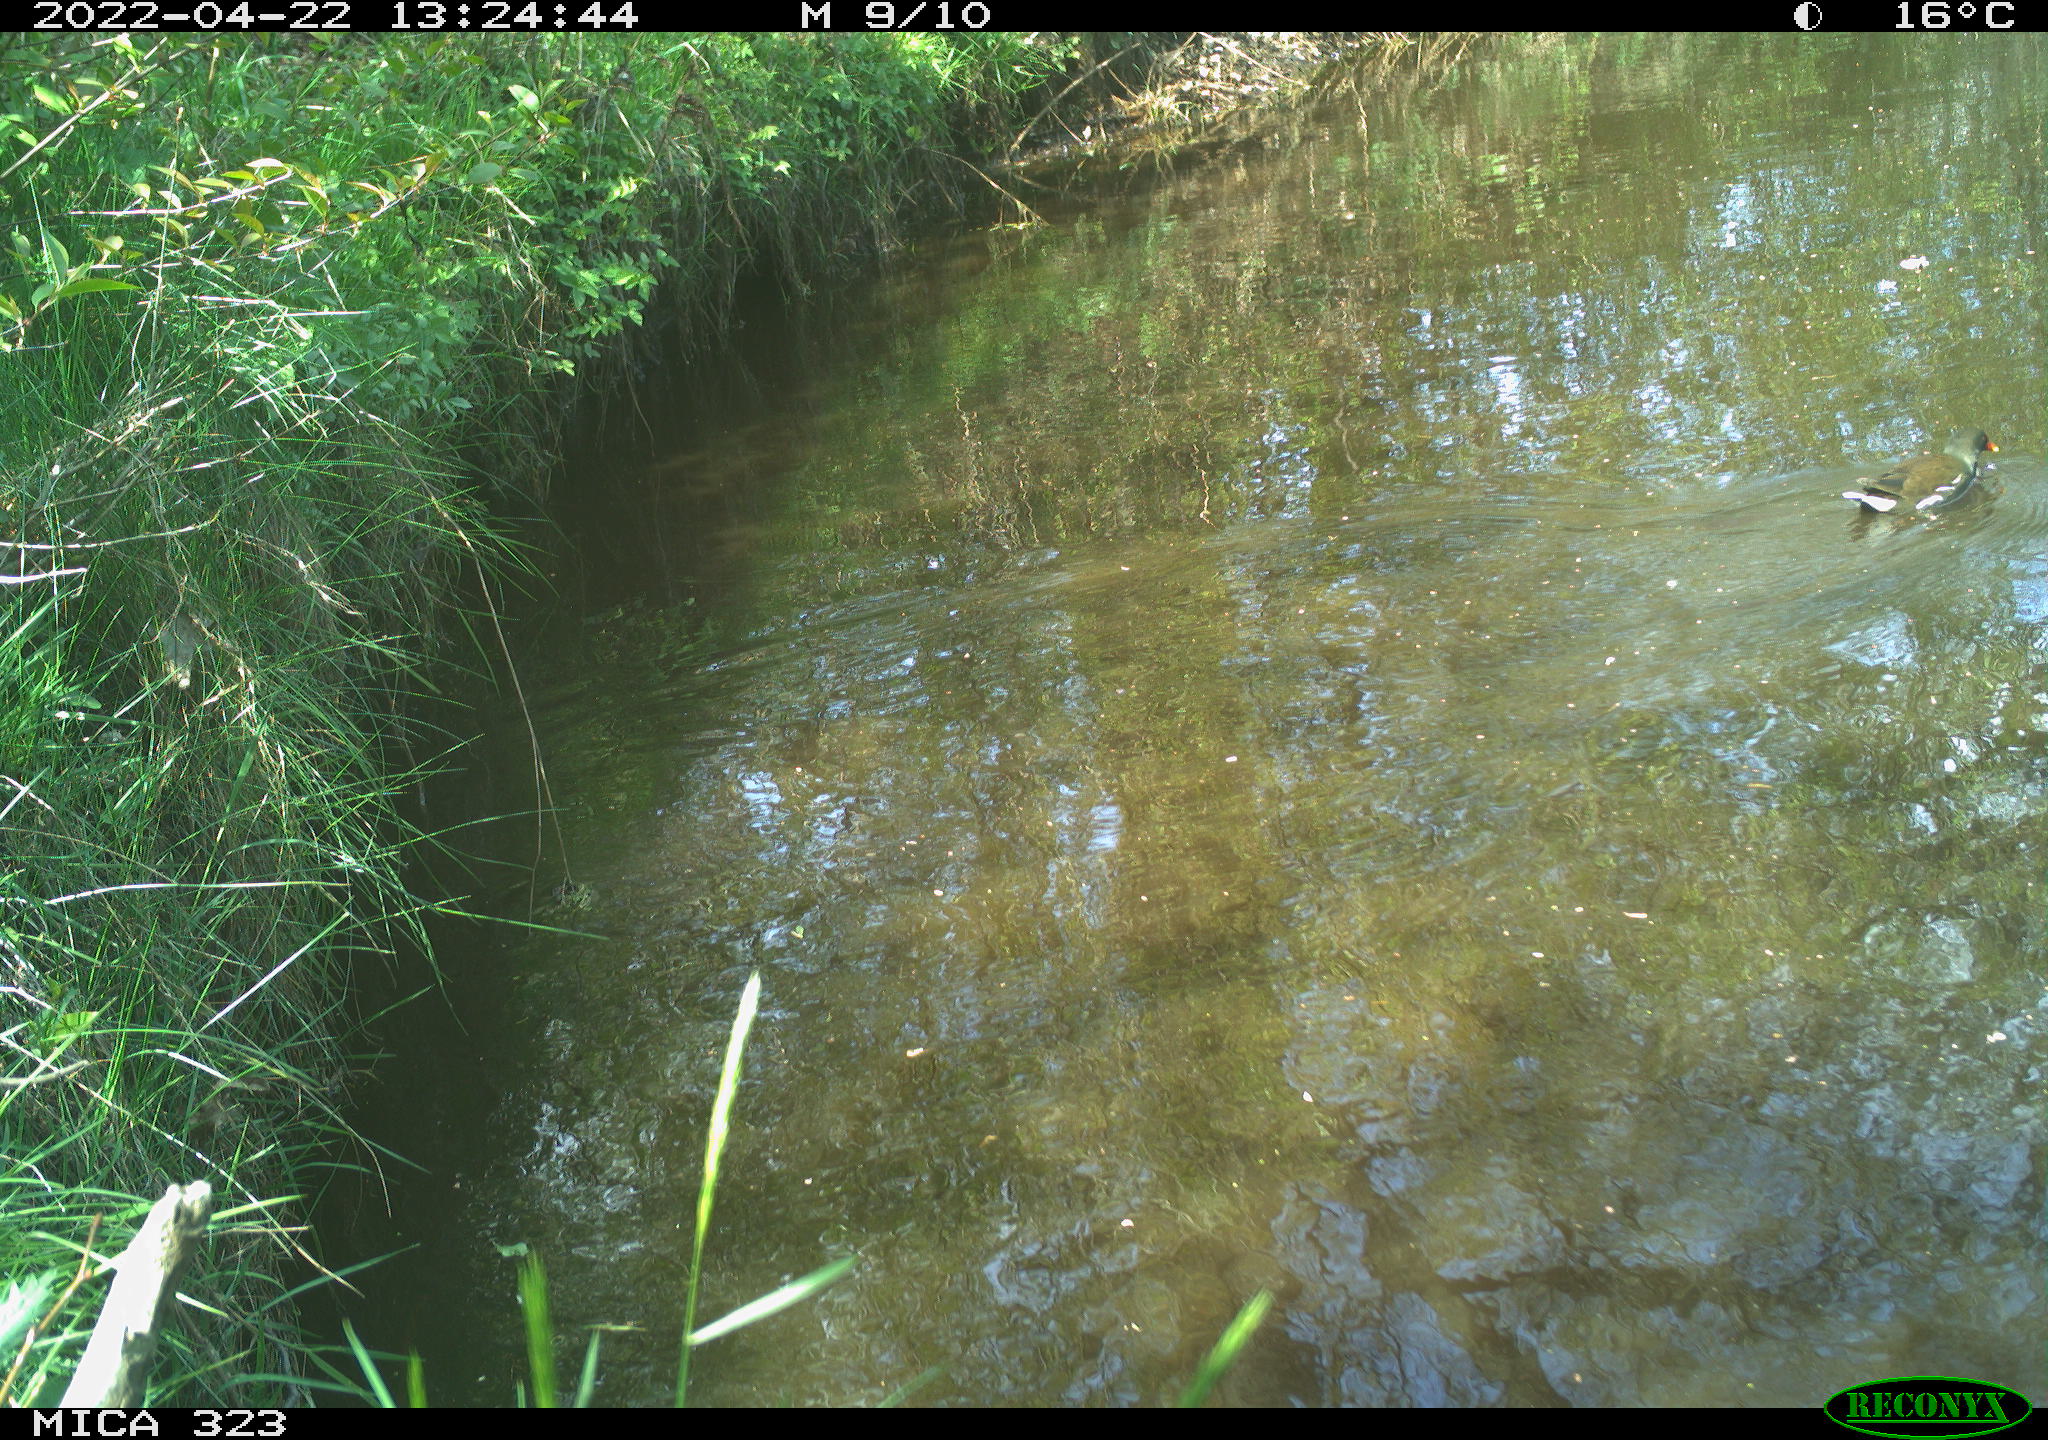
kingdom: Animalia
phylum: Chordata
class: Aves
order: Gruiformes
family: Rallidae
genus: Gallinula
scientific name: Gallinula chloropus
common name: Common moorhen
